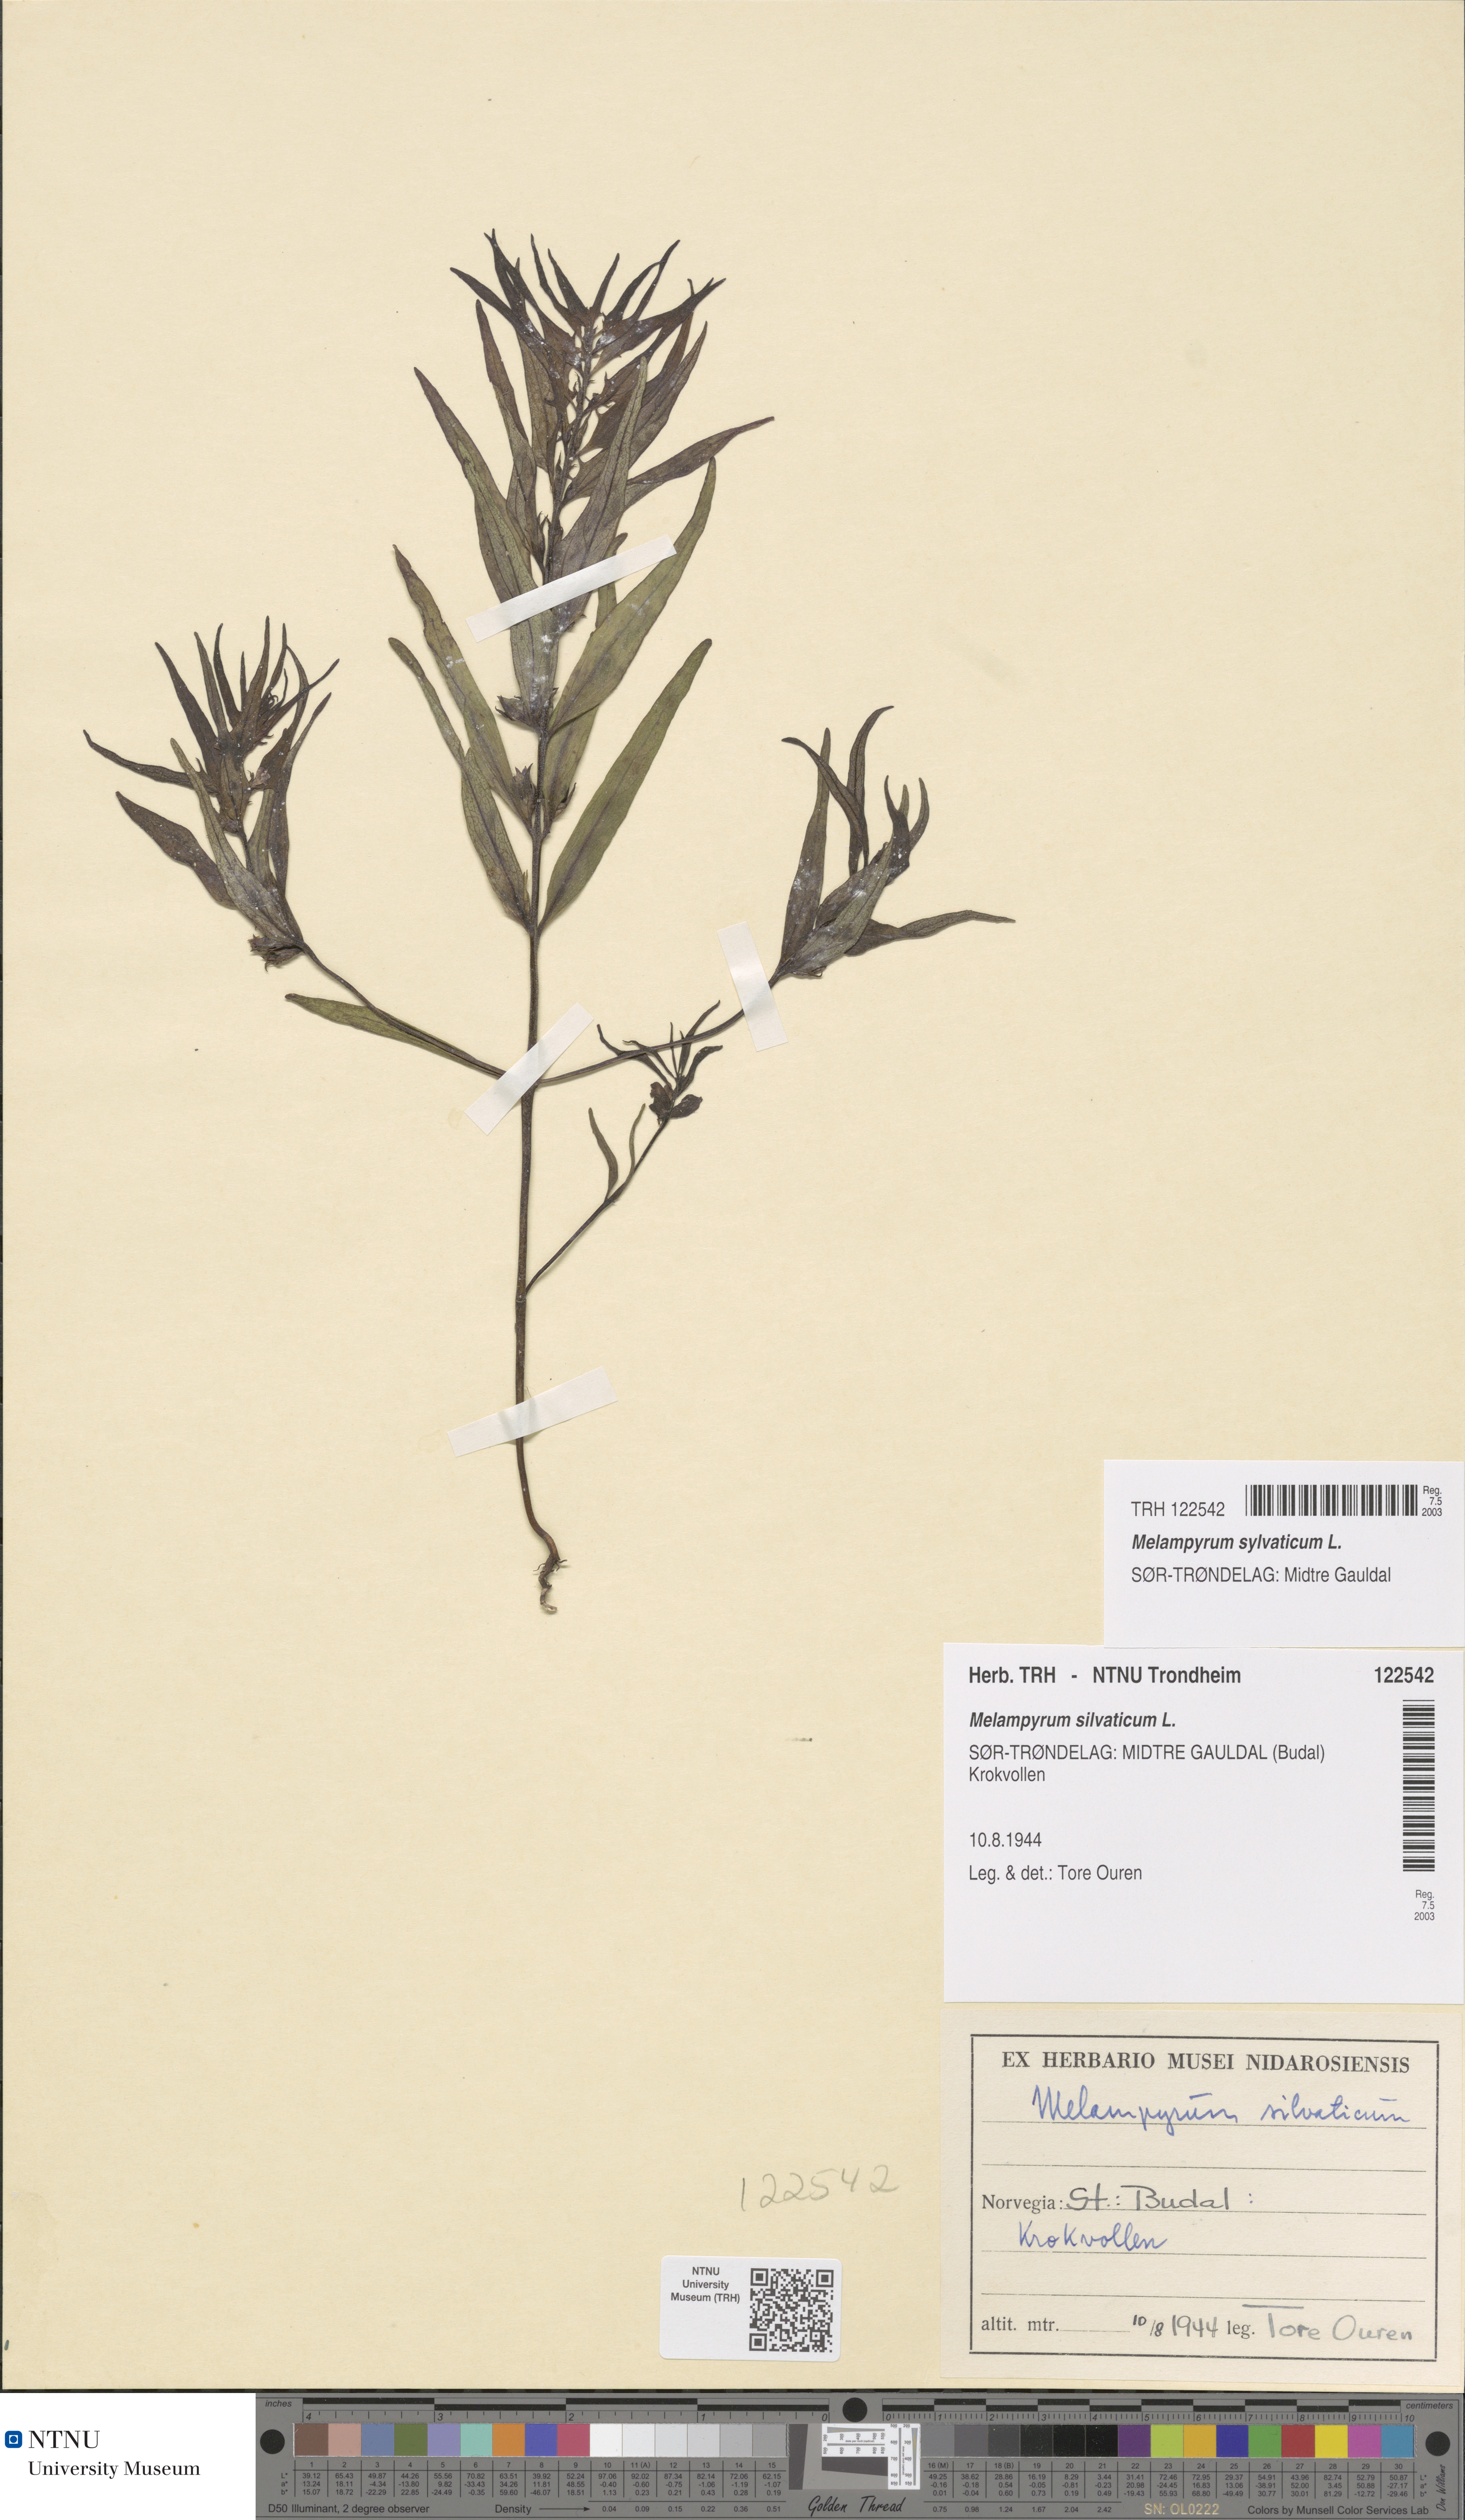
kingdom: Plantae
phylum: Tracheophyta
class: Magnoliopsida
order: Lamiales
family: Orobanchaceae
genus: Melampyrum
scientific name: Melampyrum sylvaticum
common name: Small cow-wheat
